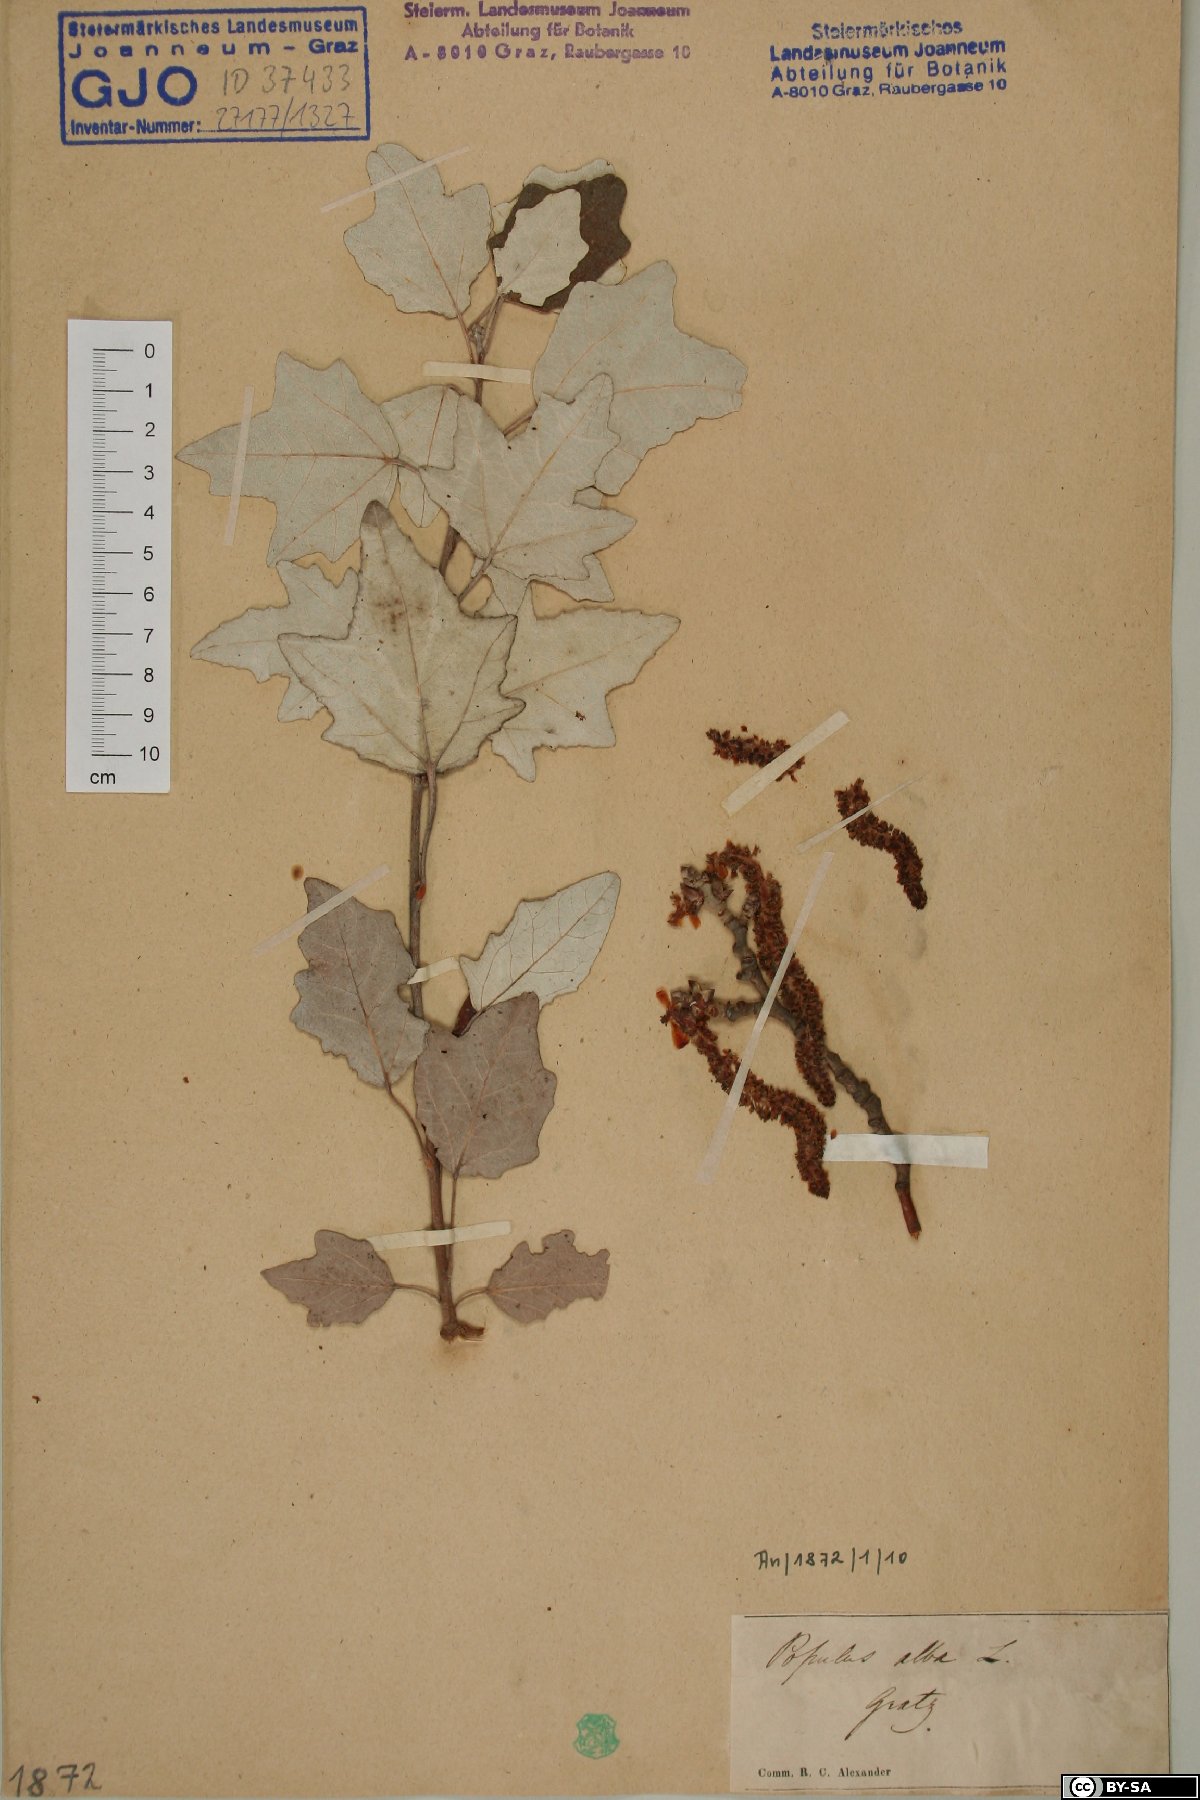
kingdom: Plantae
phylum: Tracheophyta
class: Magnoliopsida
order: Malpighiales
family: Salicaceae
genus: Populus
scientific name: Populus alba
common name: White poplar
